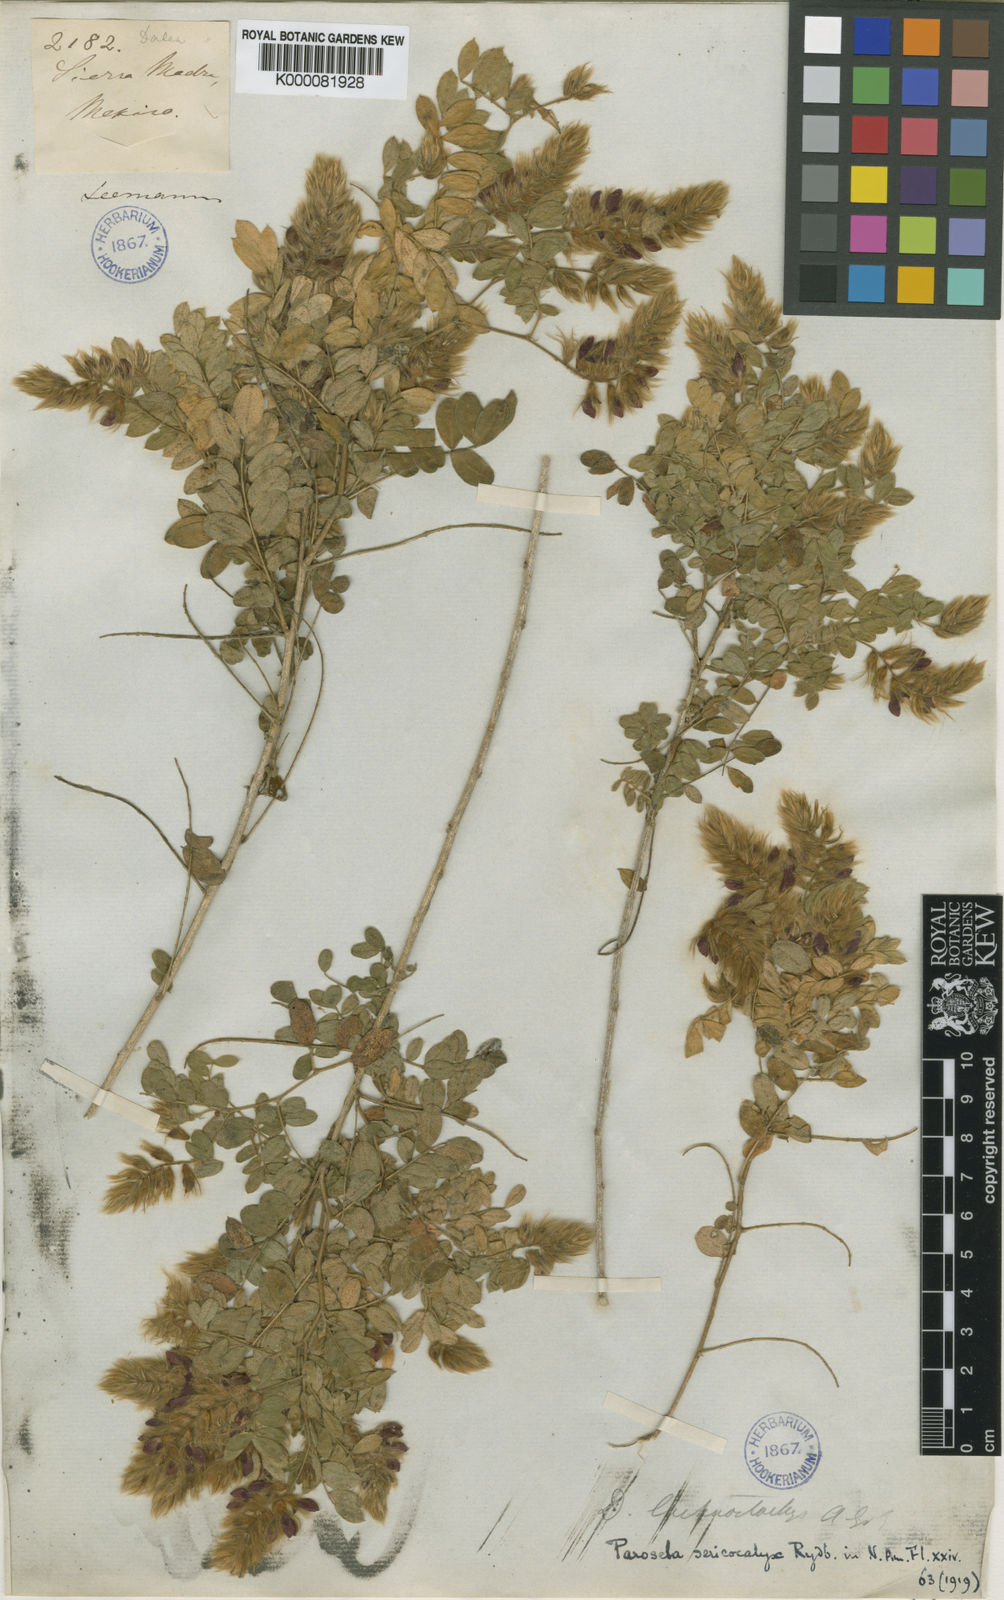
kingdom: Plantae
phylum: Tracheophyta
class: Magnoliopsida
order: Fabales
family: Fabaceae
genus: Dalea
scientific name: Dalea sericocalyx
